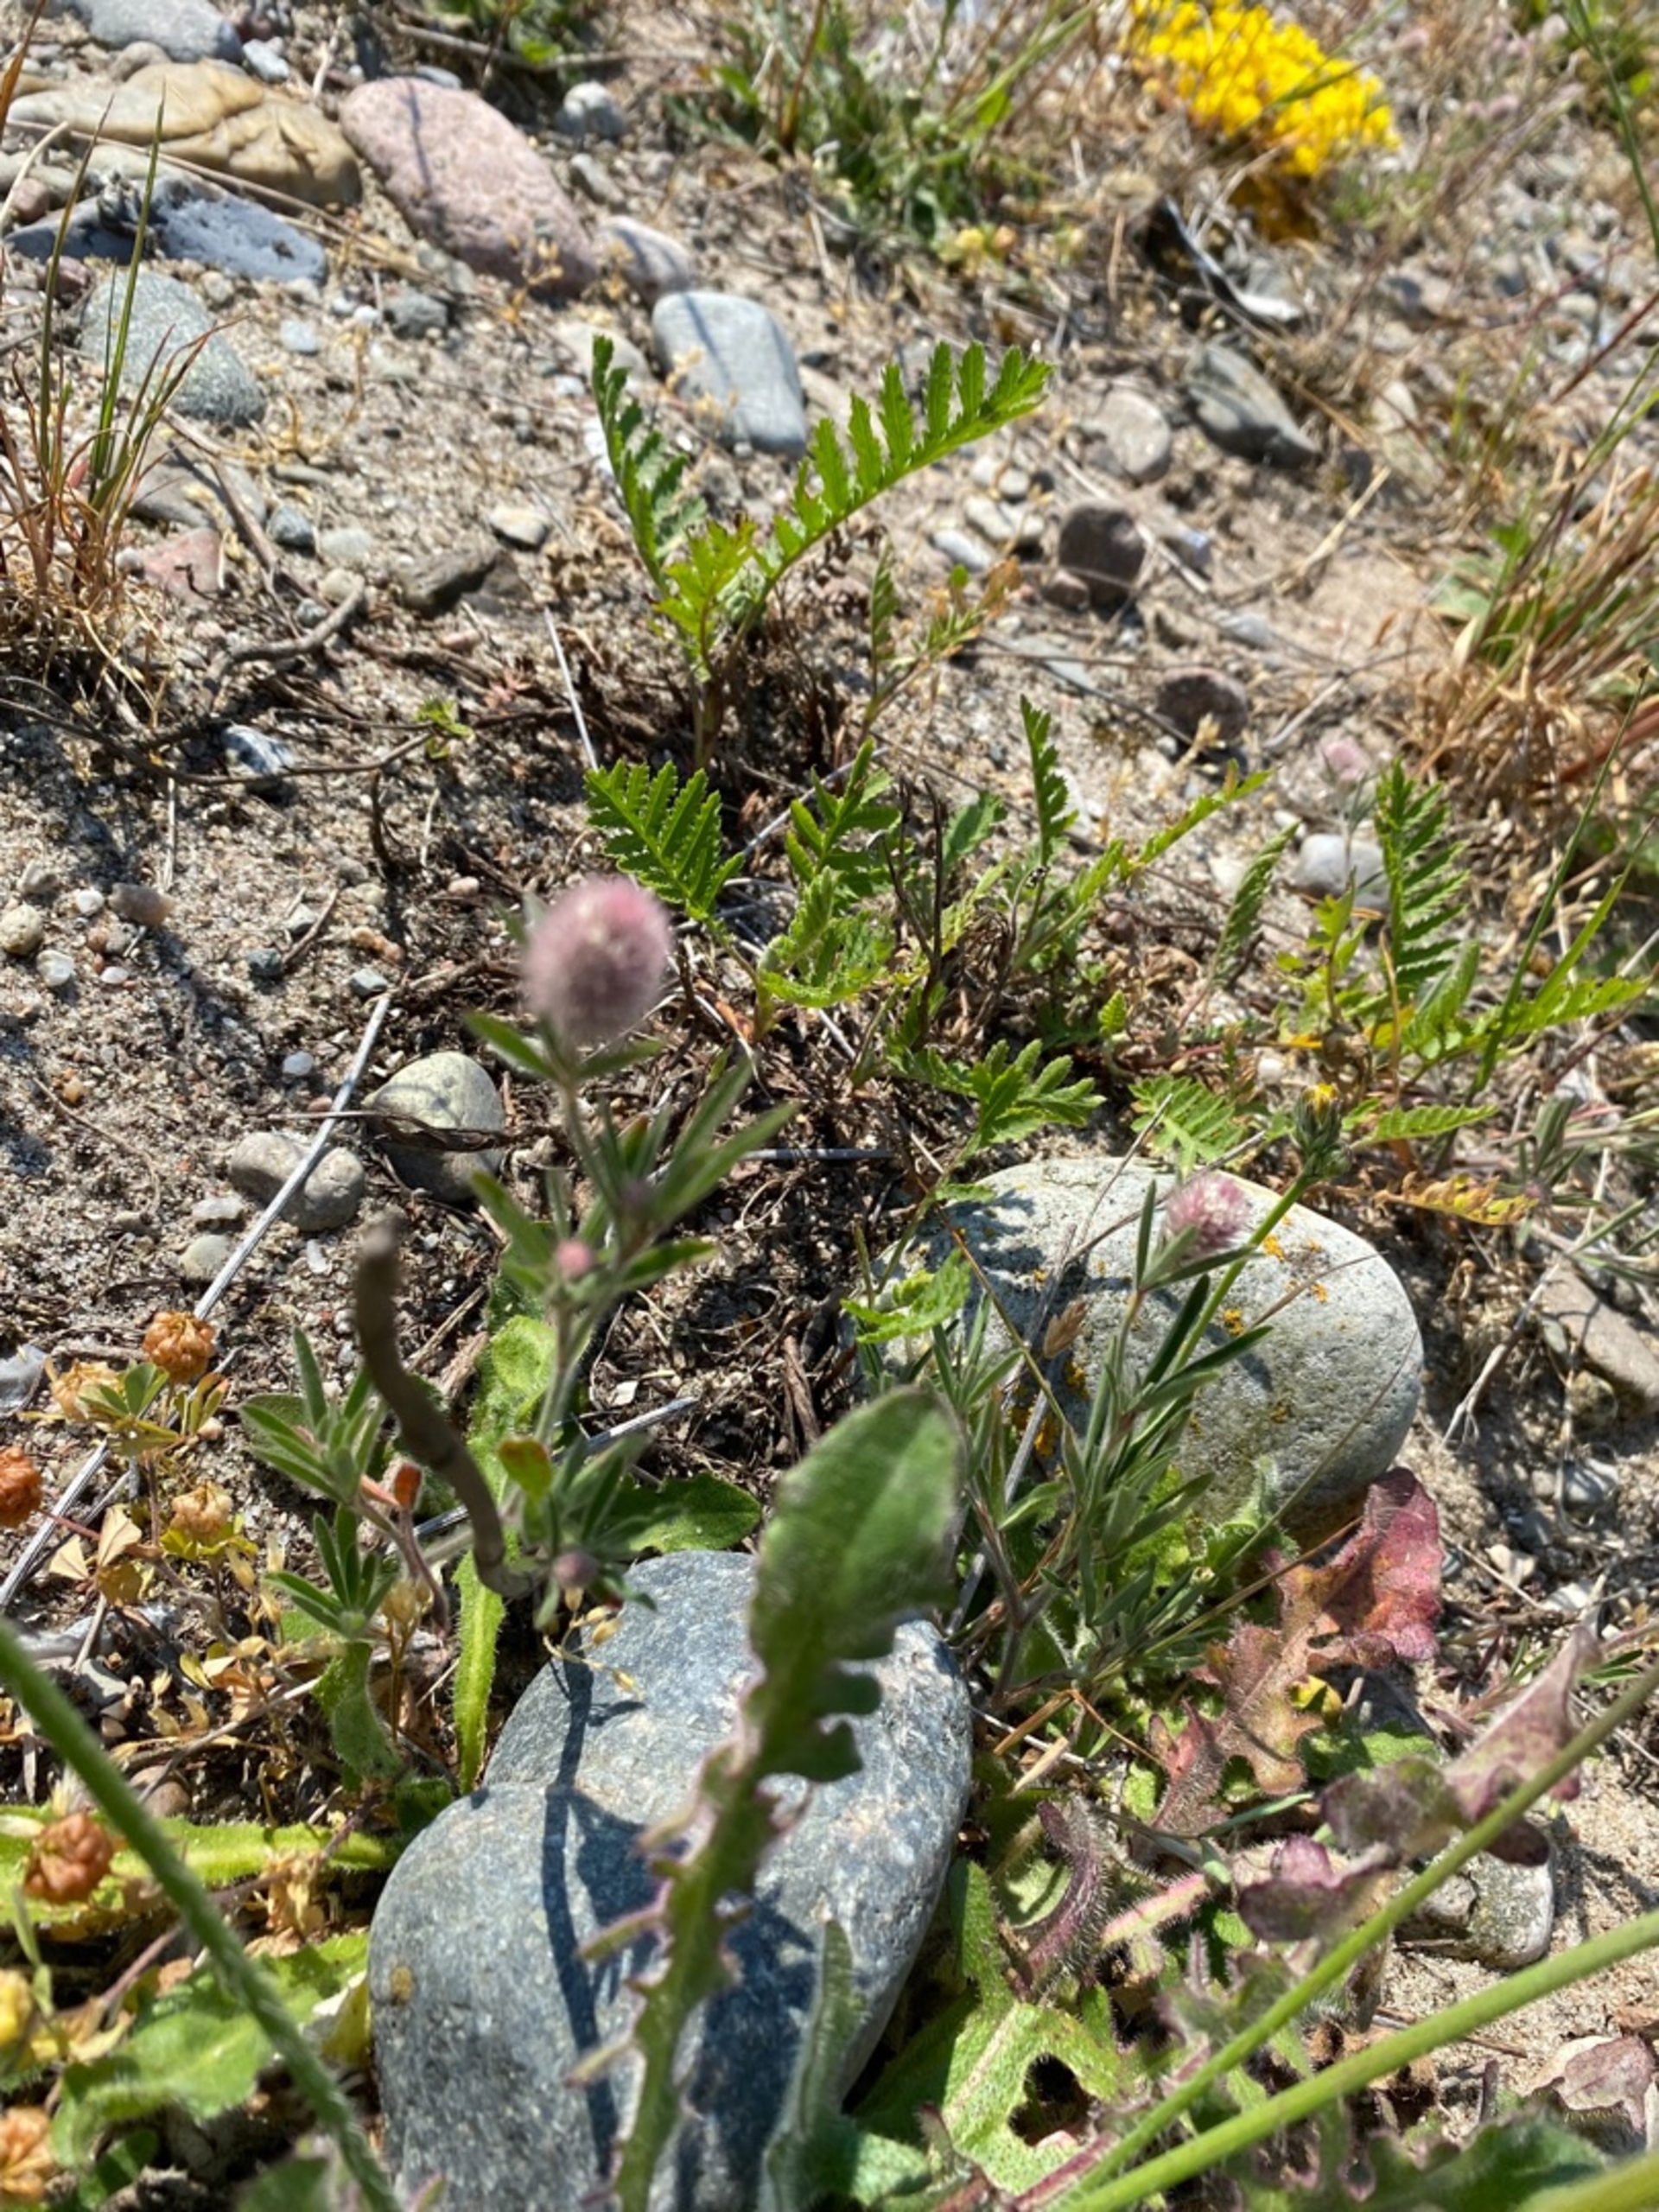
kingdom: Plantae
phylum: Tracheophyta
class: Magnoliopsida
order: Fabales
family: Fabaceae
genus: Trifolium
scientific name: Trifolium arvense
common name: Hare-kløver
